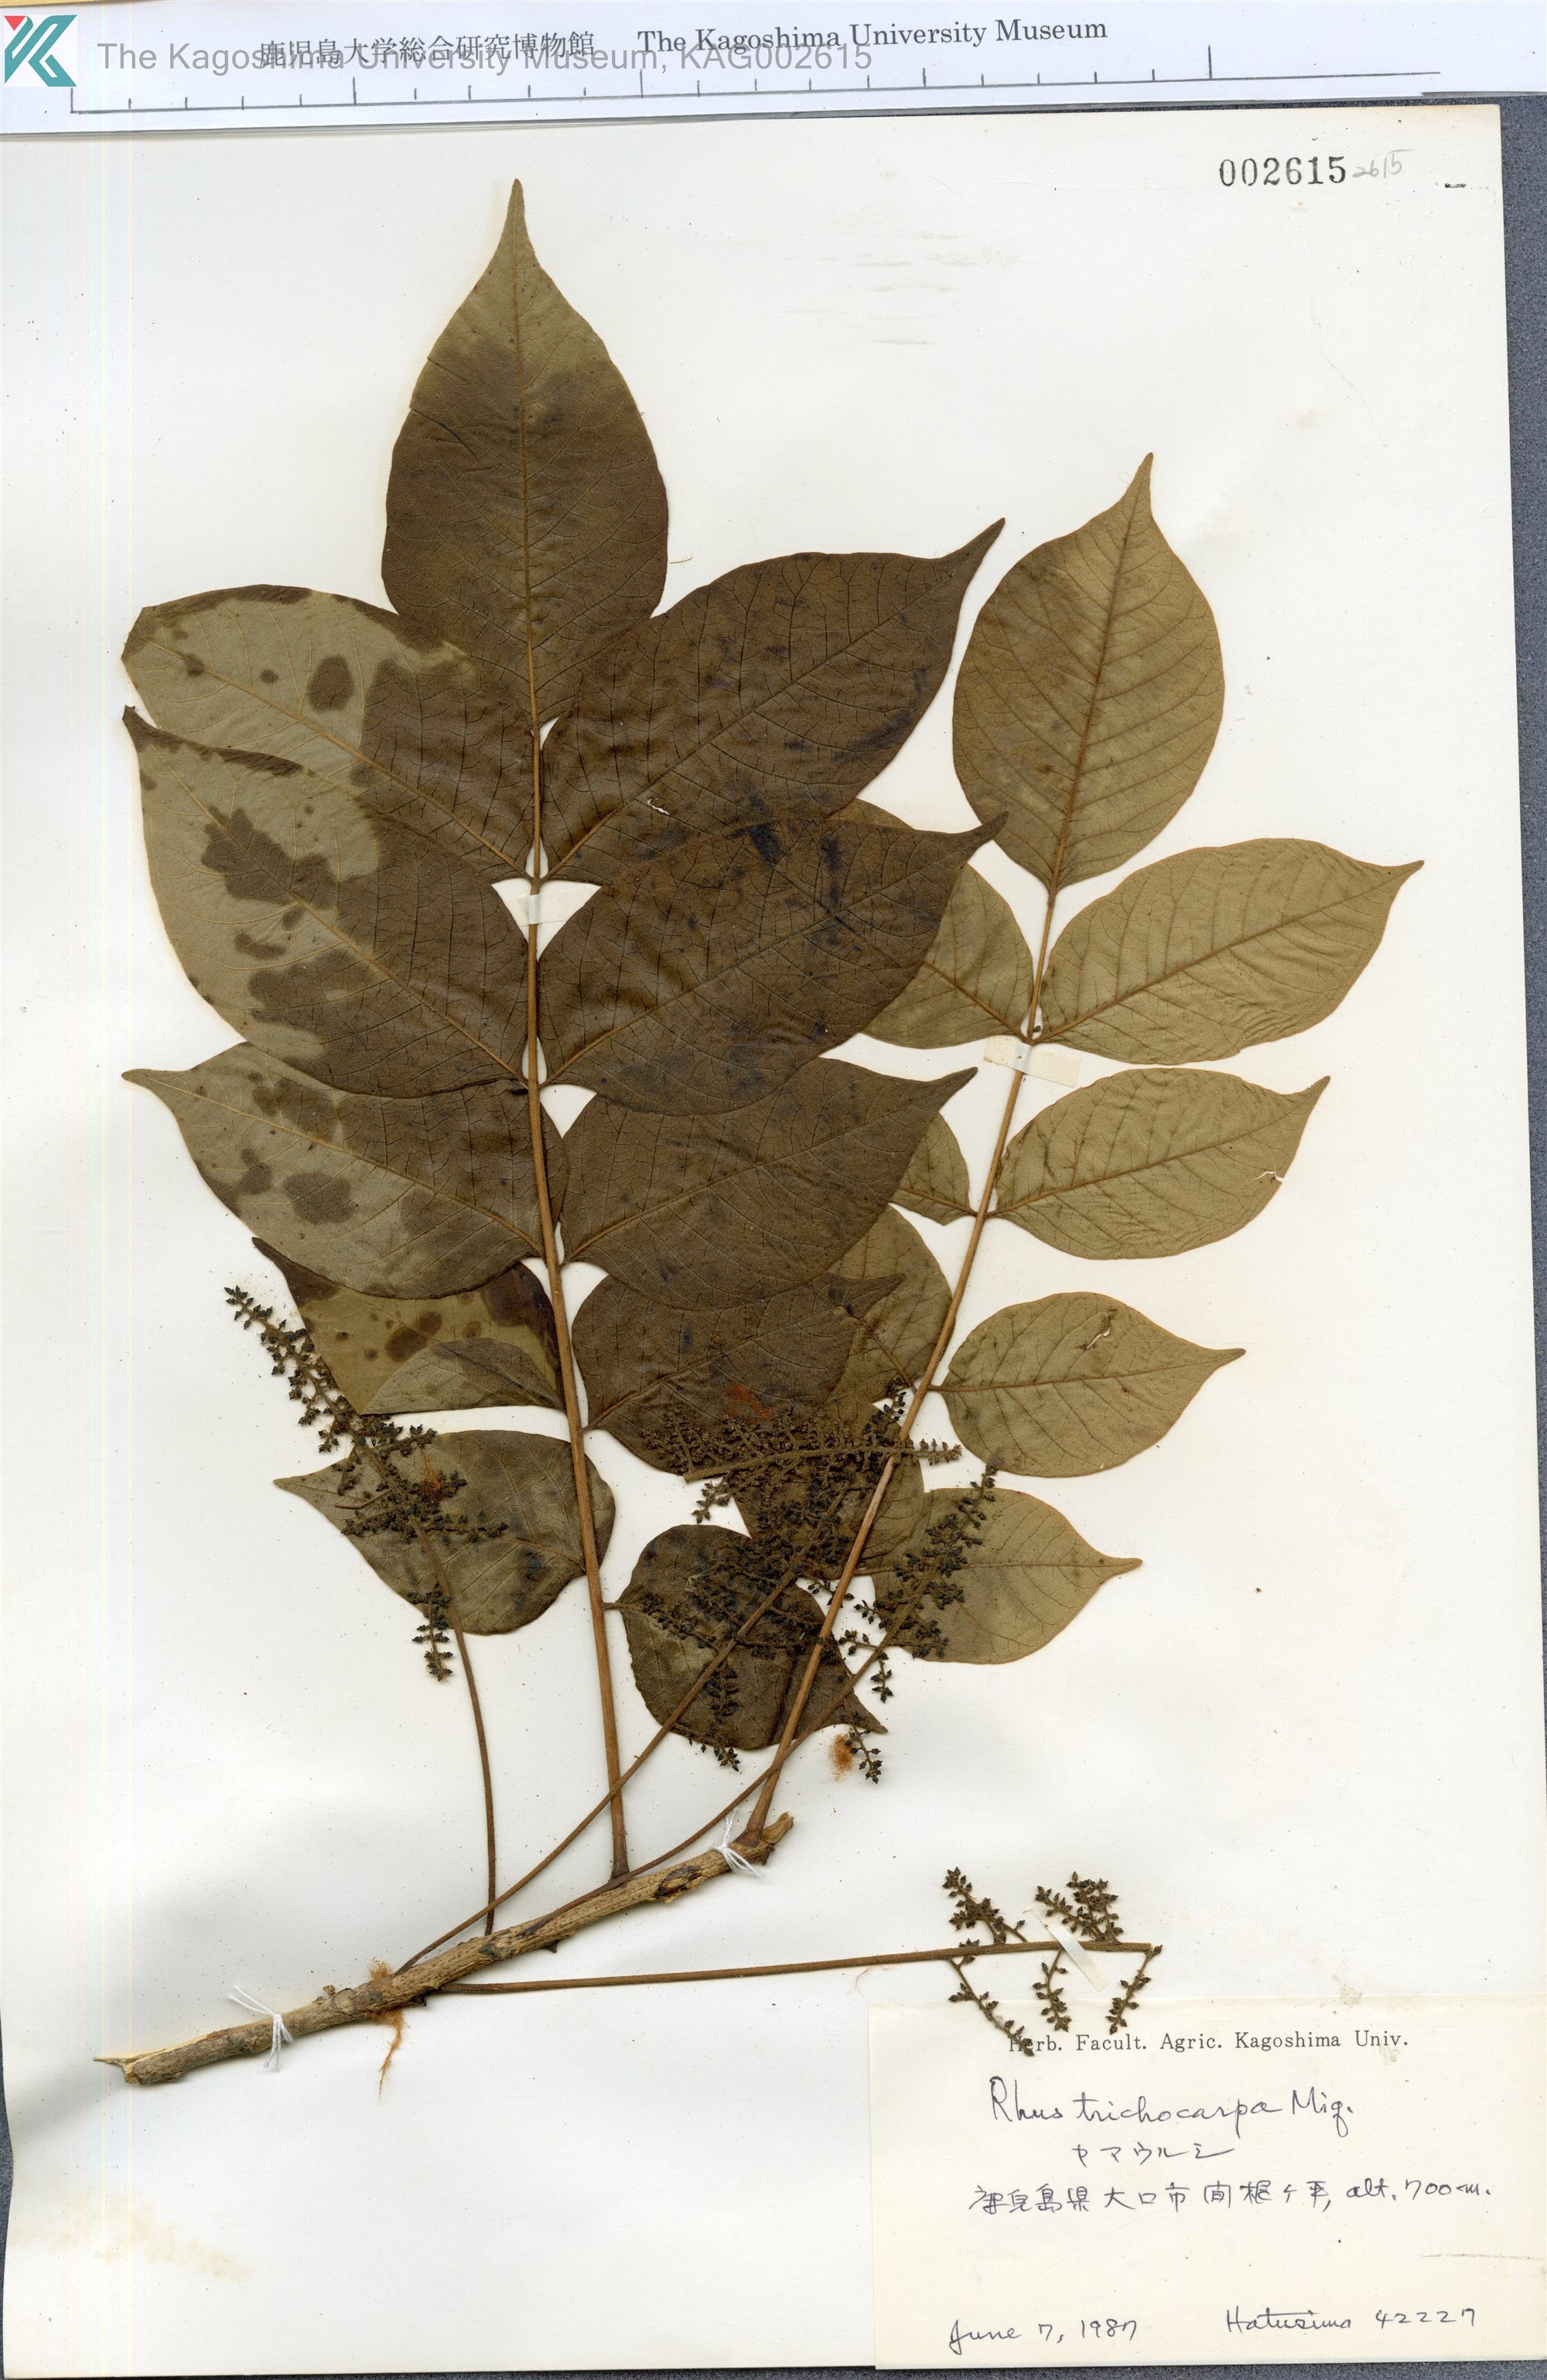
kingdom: Plantae
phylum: Tracheophyta
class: Magnoliopsida
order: Sapindales
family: Anacardiaceae
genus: Toxicodendron
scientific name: Toxicodendron trichocarpum
